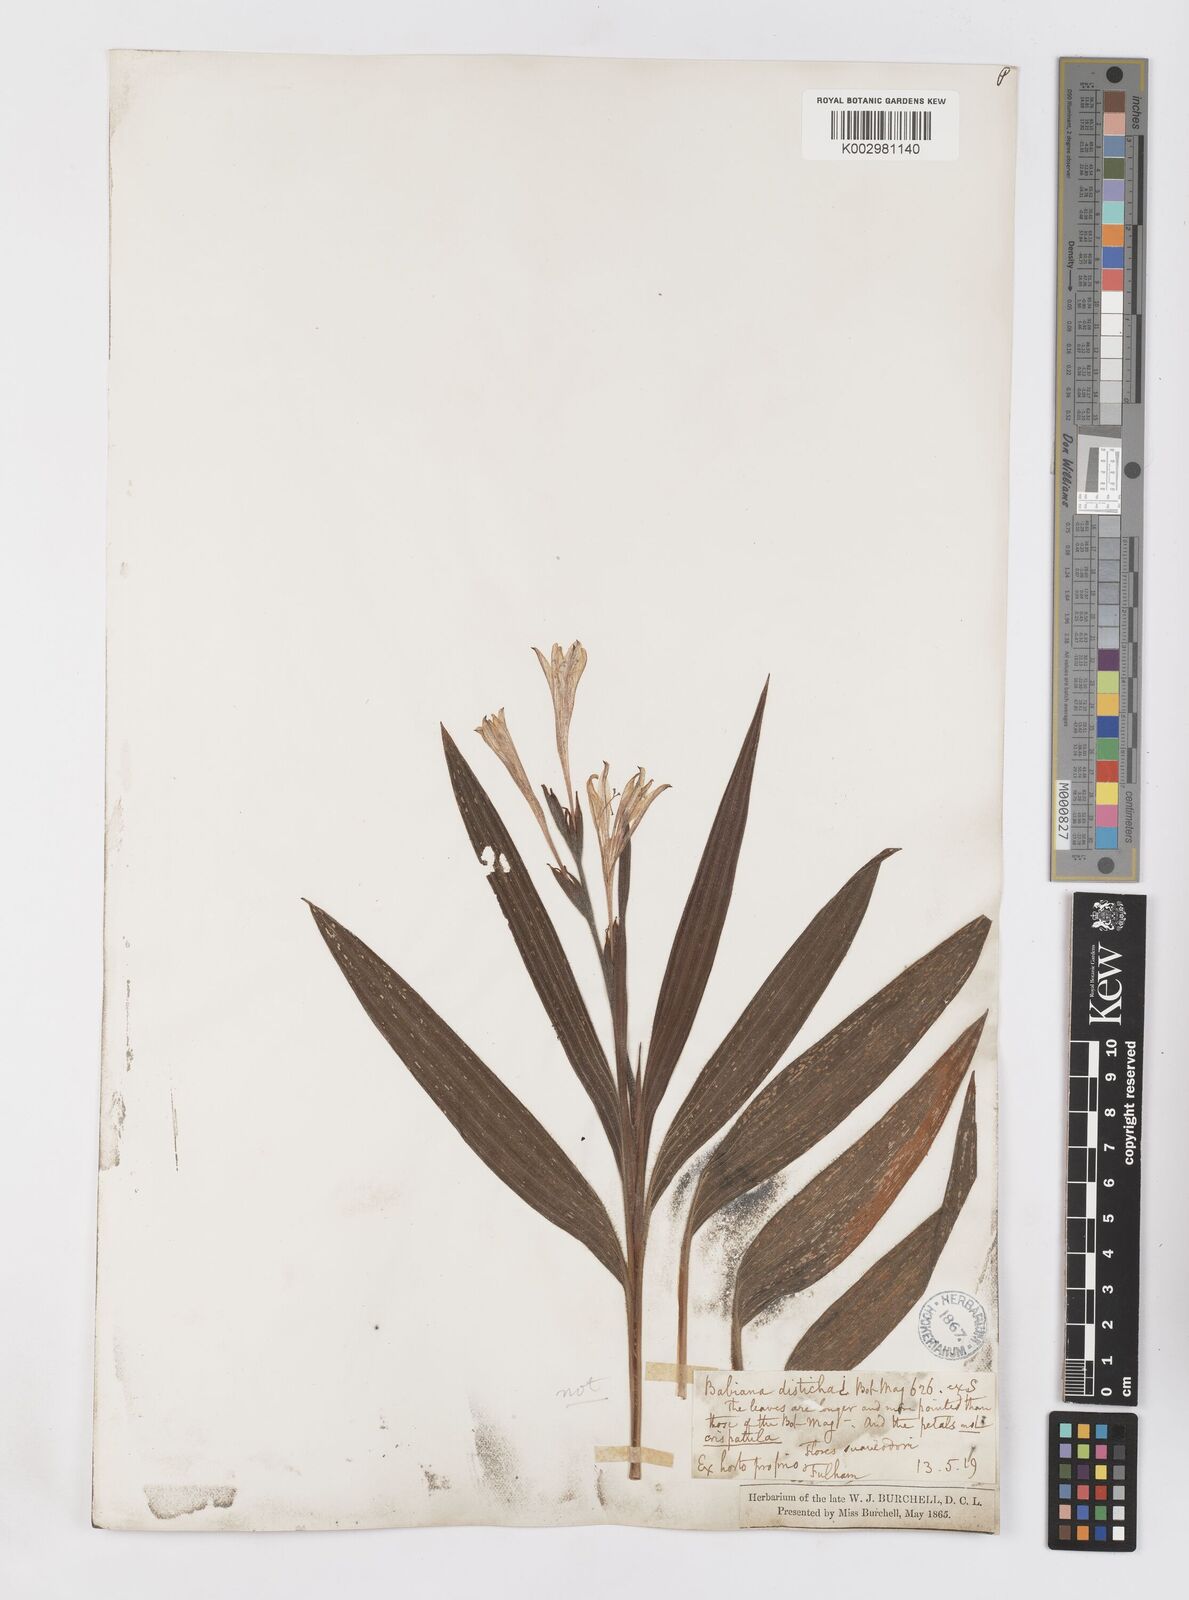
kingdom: Plantae
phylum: Tracheophyta
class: Liliopsida
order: Asparagales
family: Iridaceae
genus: Babiana
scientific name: Babiana
